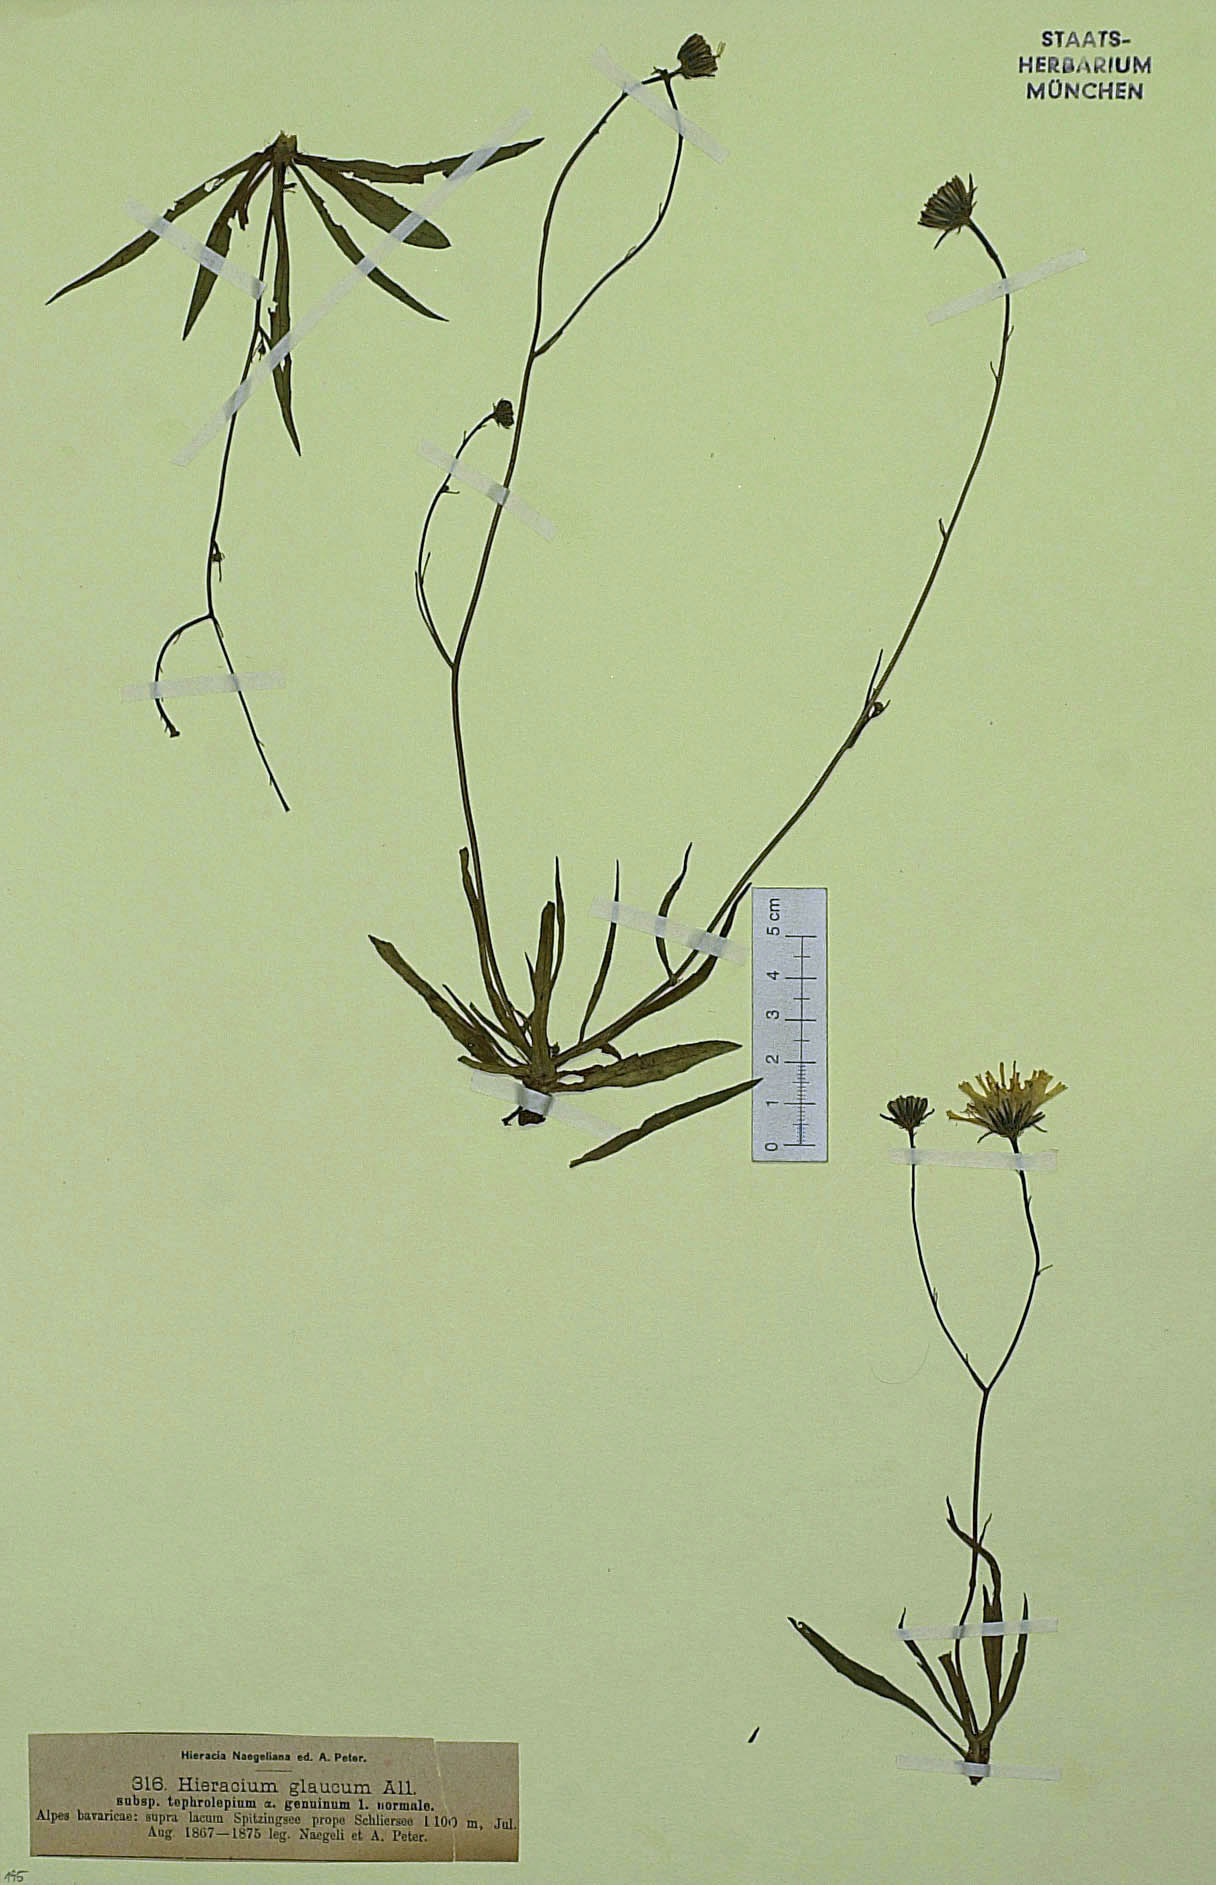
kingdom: Plantae
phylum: Tracheophyta
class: Magnoliopsida
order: Asterales
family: Asteraceae
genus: Hieracium
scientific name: Hieracium glaucum
